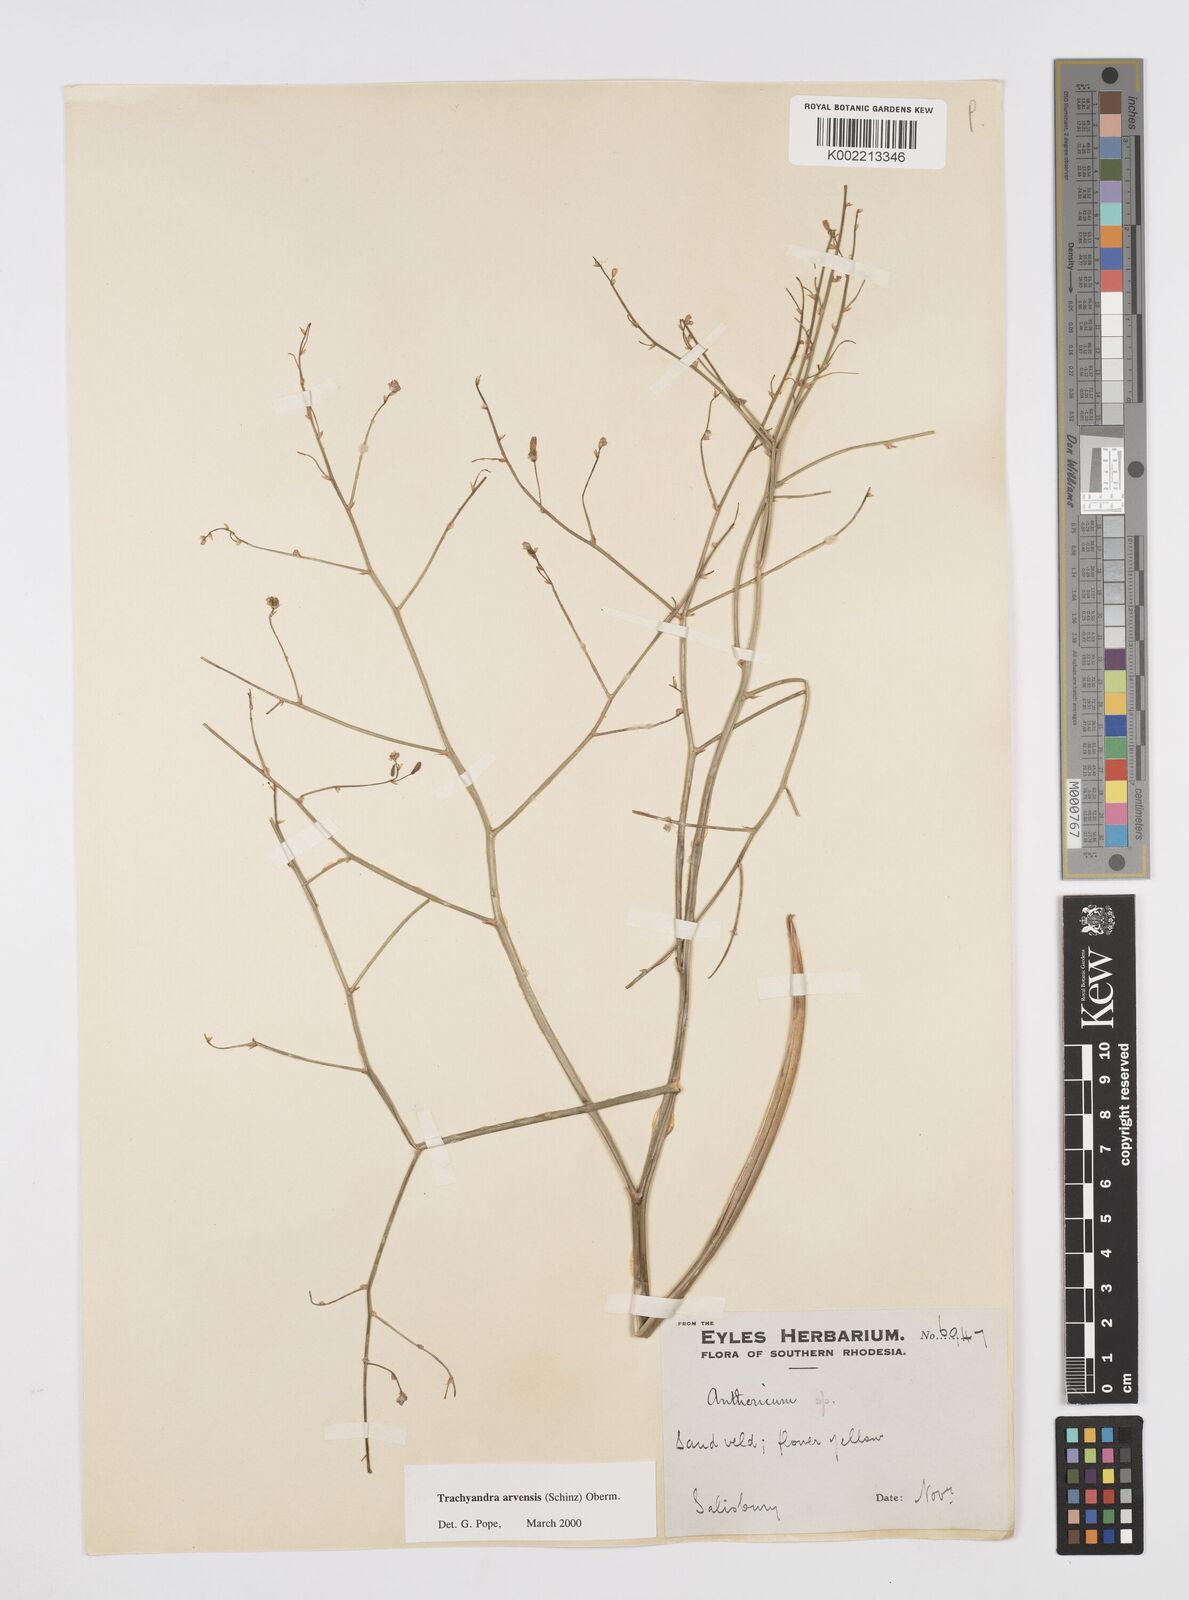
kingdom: Plantae
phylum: Tracheophyta
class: Liliopsida
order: Asparagales
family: Asphodelaceae
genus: Trachyandra
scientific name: Trachyandra arvensis
